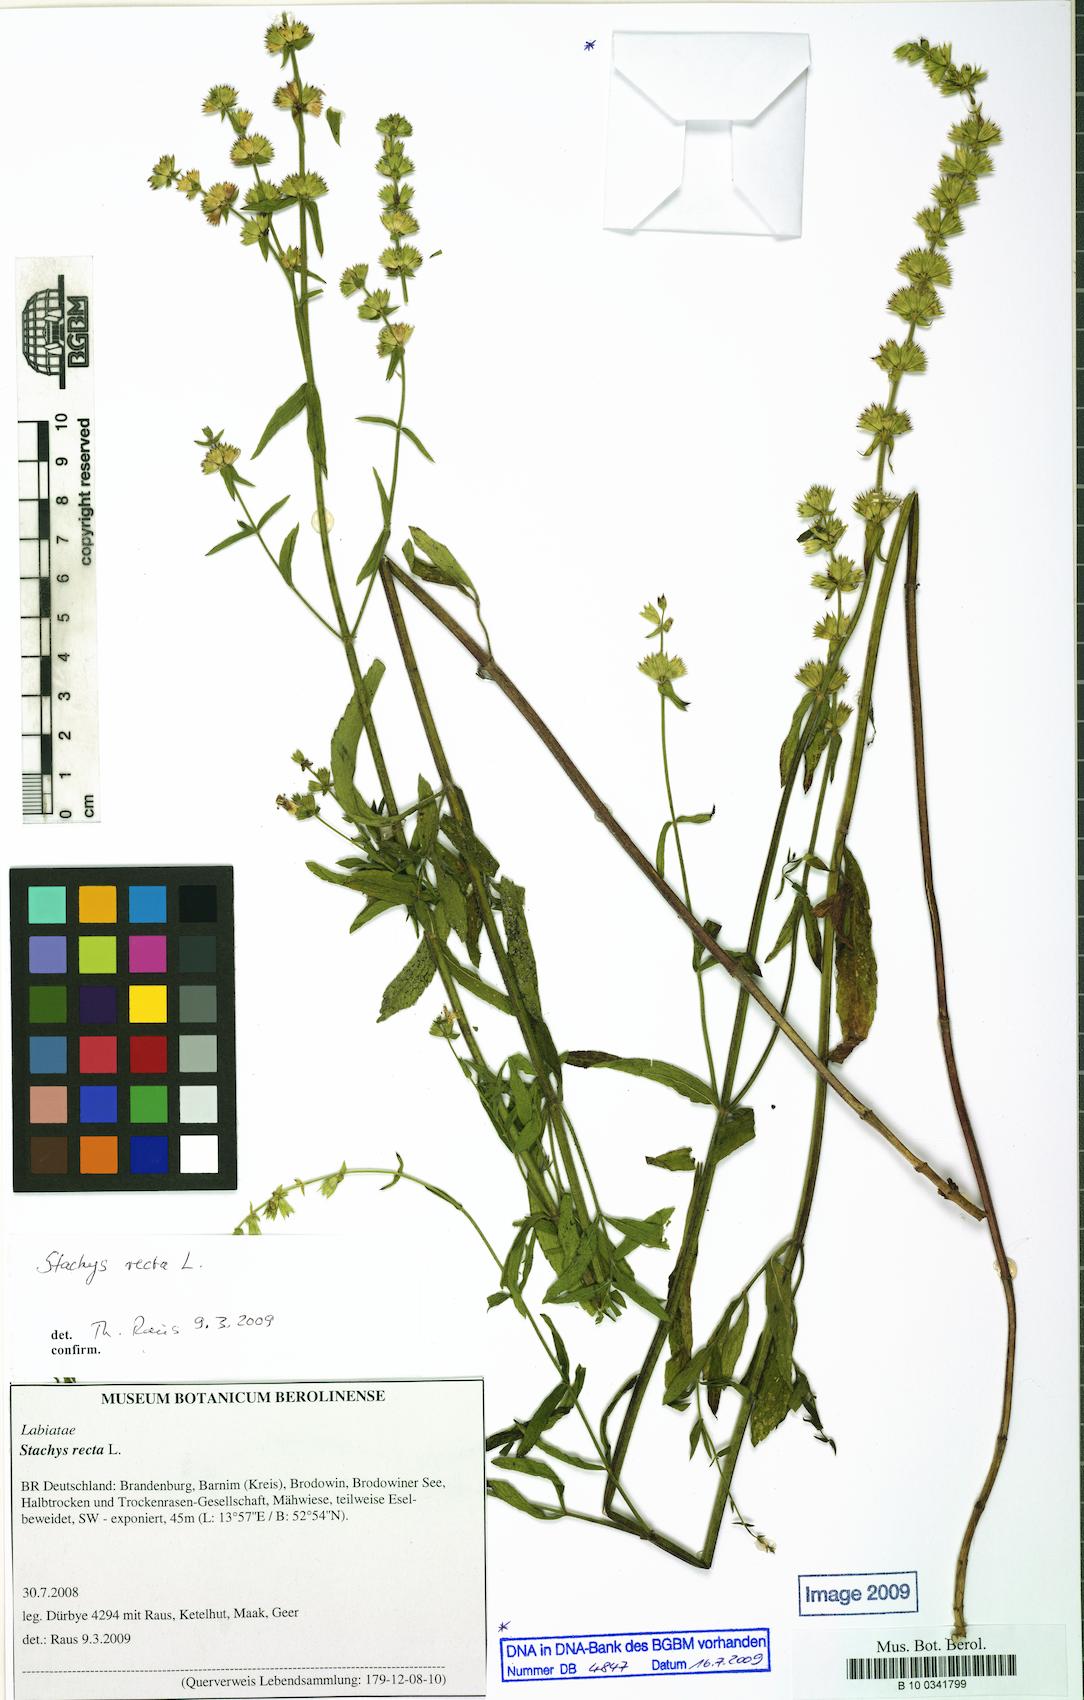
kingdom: Plantae
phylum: Tracheophyta
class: Magnoliopsida
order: Lamiales
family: Lamiaceae
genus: Stachys
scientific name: Stachys recta
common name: Perennial yellow-woundwort
